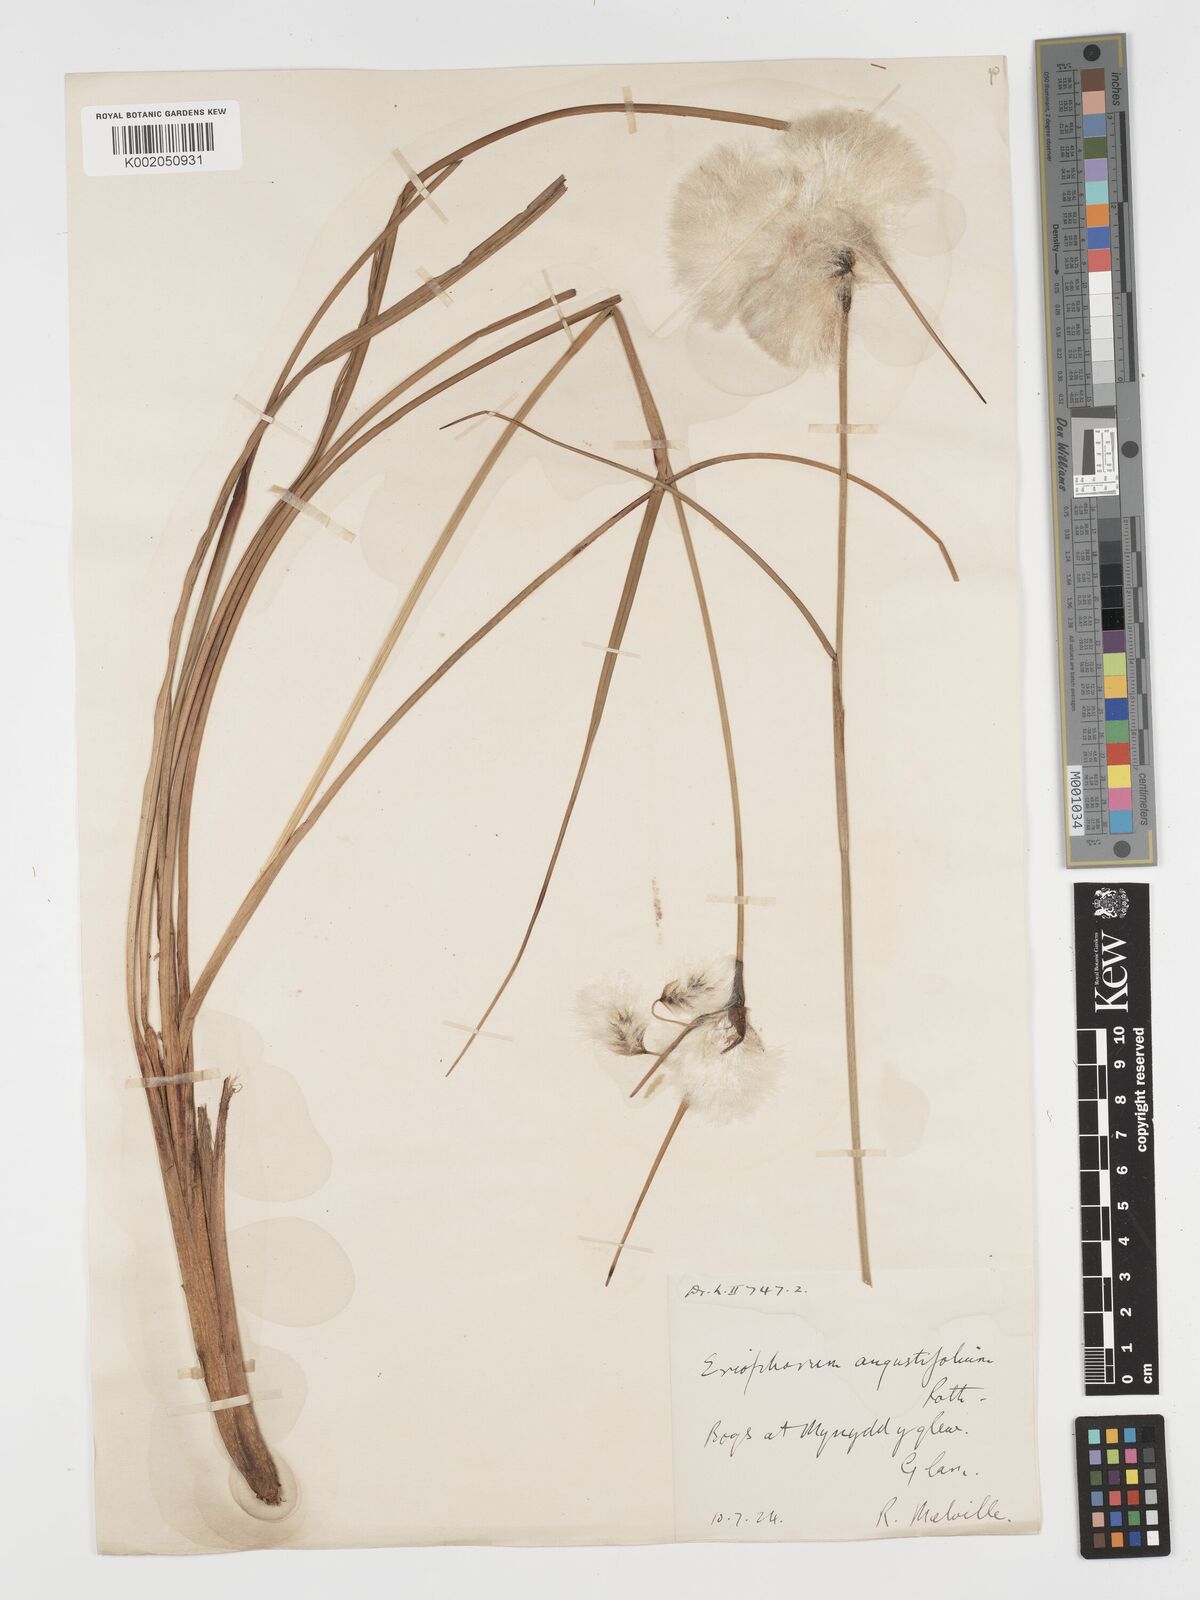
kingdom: Plantae
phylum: Tracheophyta
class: Liliopsida
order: Poales
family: Cyperaceae
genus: Eriophorum
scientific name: Eriophorum angustifolium
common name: Common cottongrass
